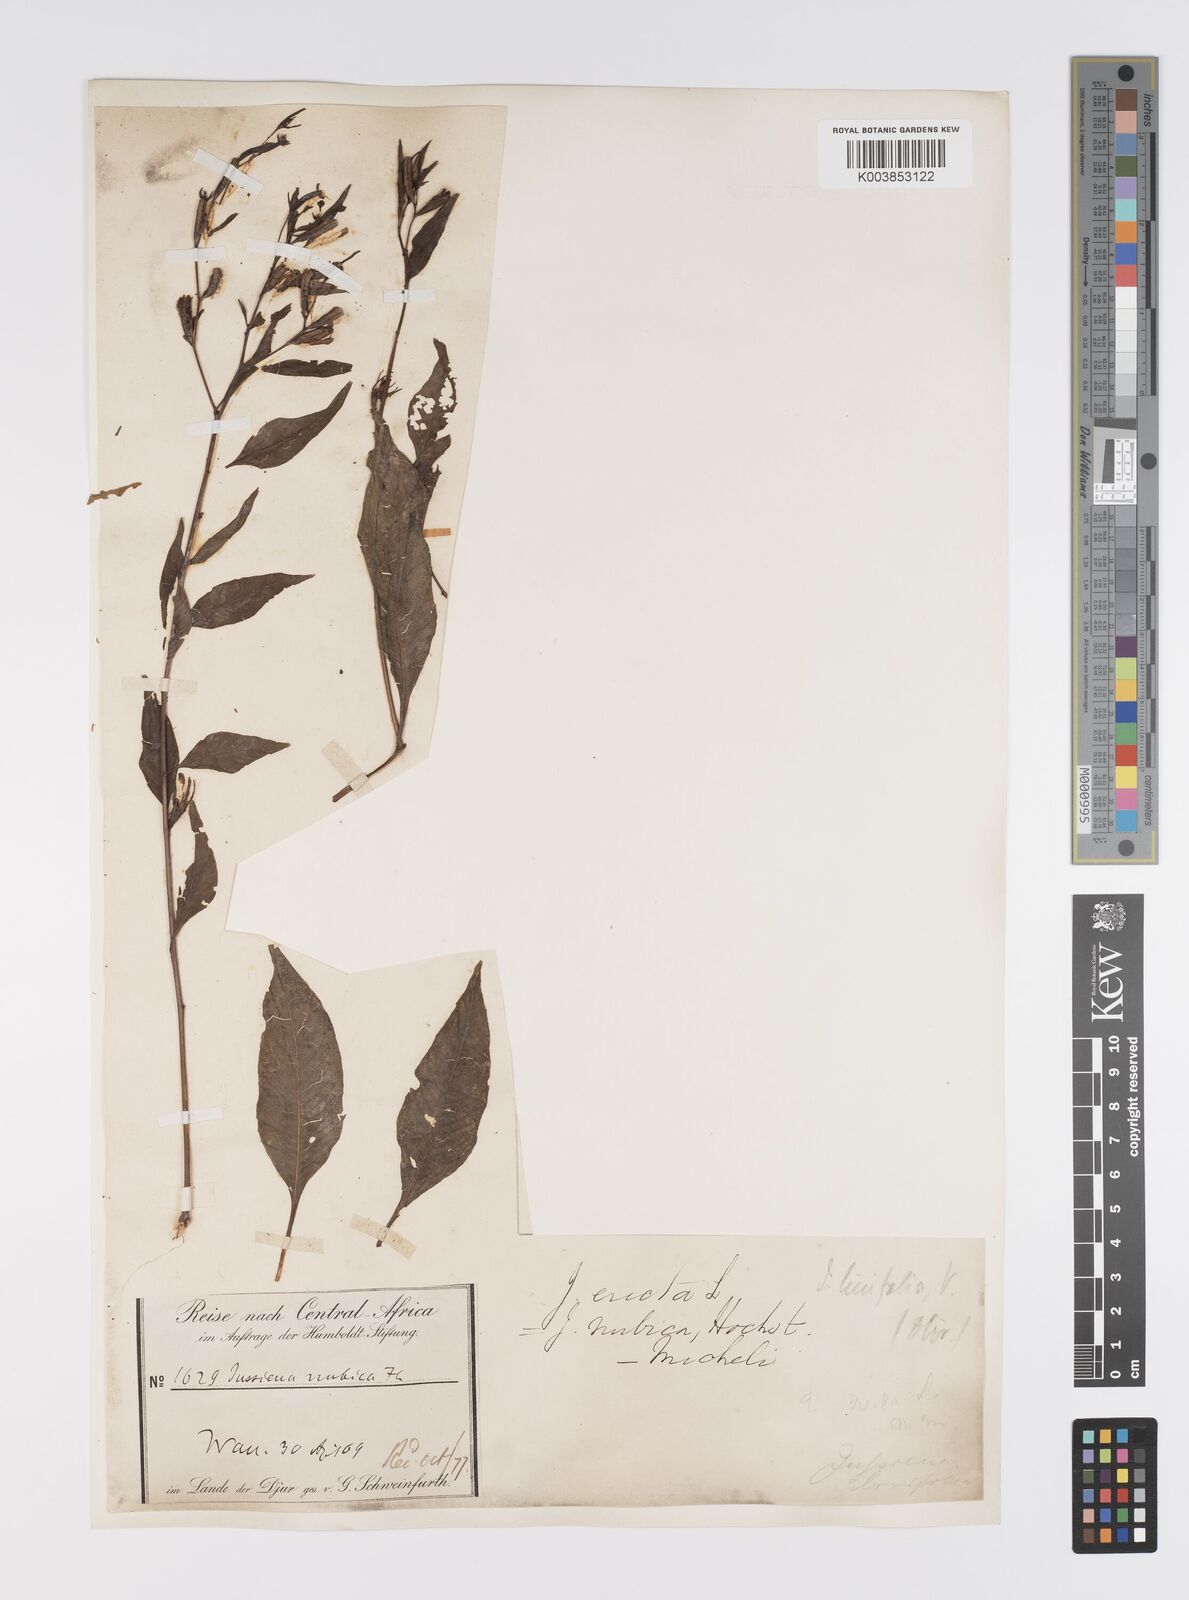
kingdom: Plantae
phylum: Tracheophyta
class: Magnoliopsida
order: Myrtales
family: Onagraceae
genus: Ludwigia
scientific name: Ludwigia erecta
